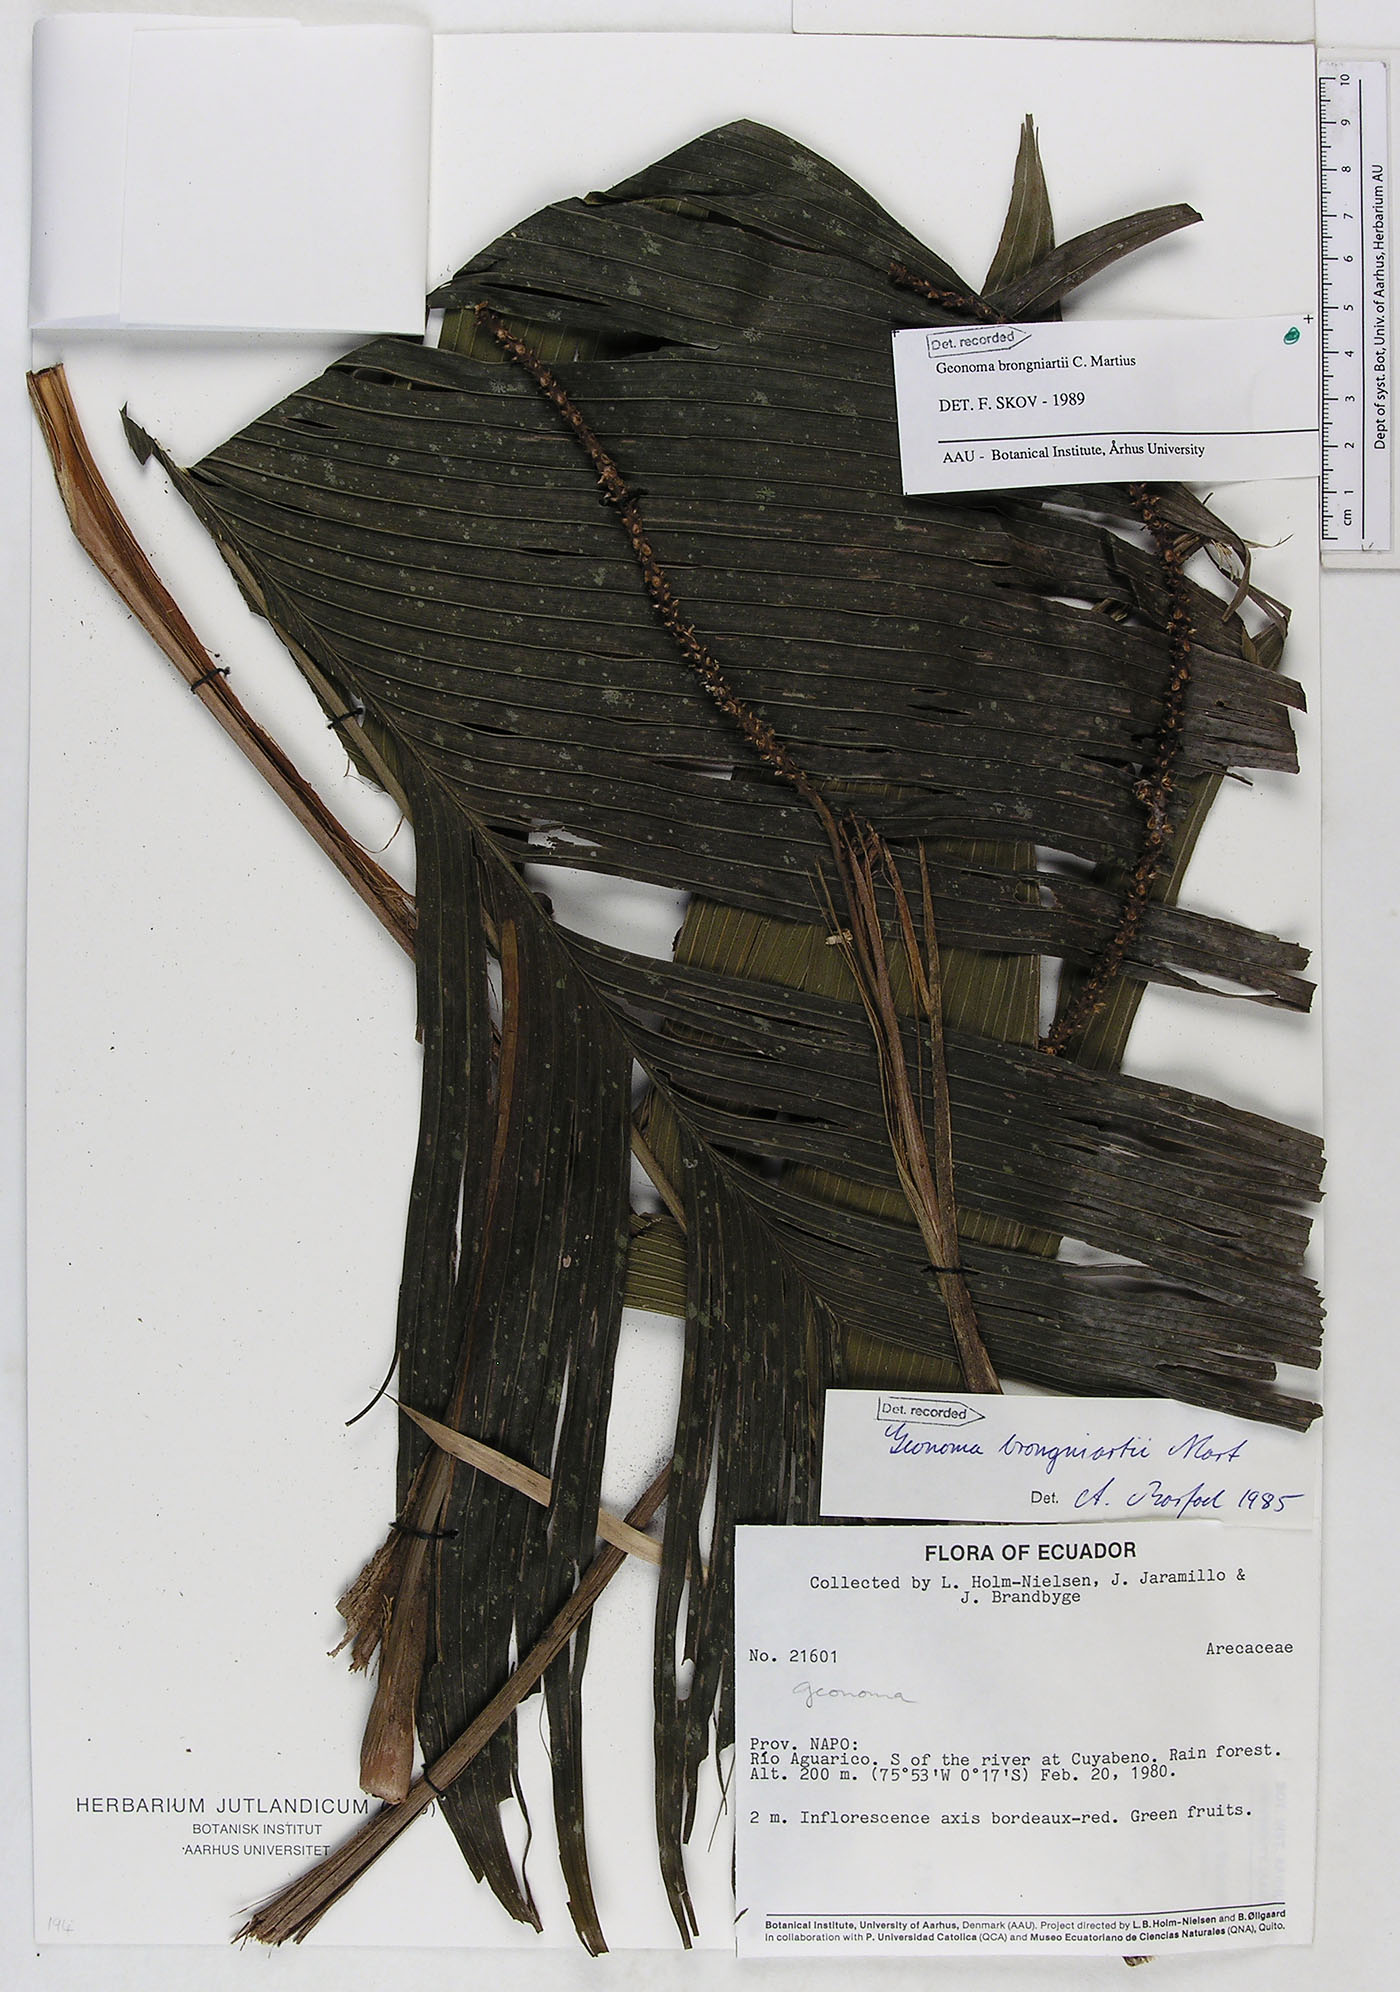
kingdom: Plantae
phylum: Tracheophyta
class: Liliopsida
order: Arecales
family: Arecaceae
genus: Geonoma
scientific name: Geonoma brongniartii
